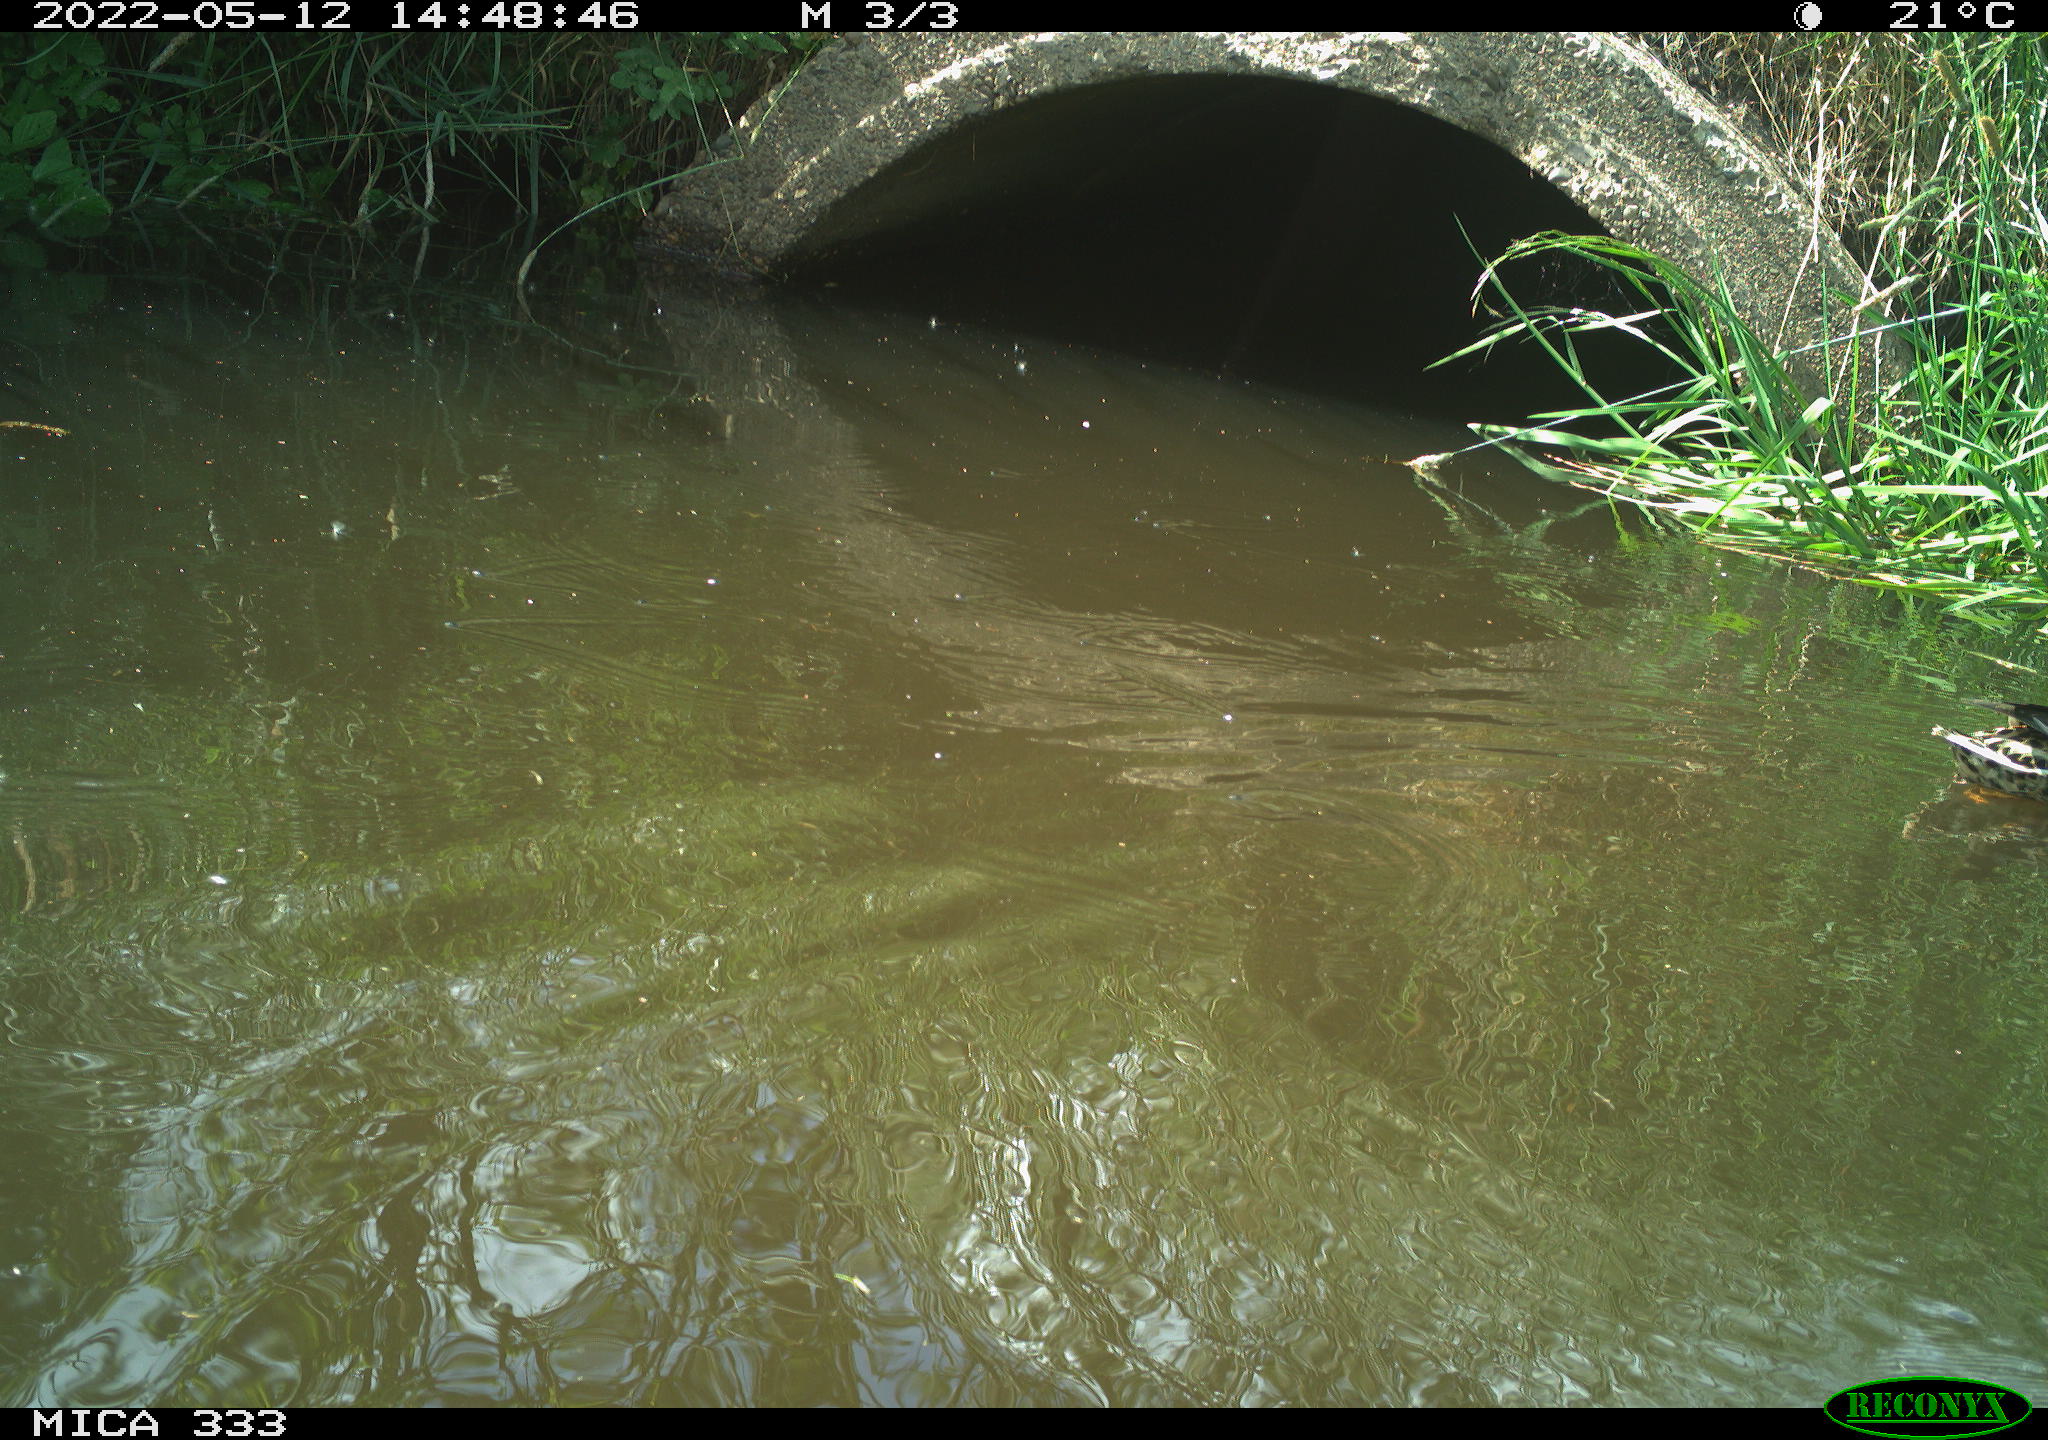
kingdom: Animalia
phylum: Chordata
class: Aves
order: Anseriformes
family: Anatidae
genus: Anas
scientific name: Anas platyrhynchos
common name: Mallard
